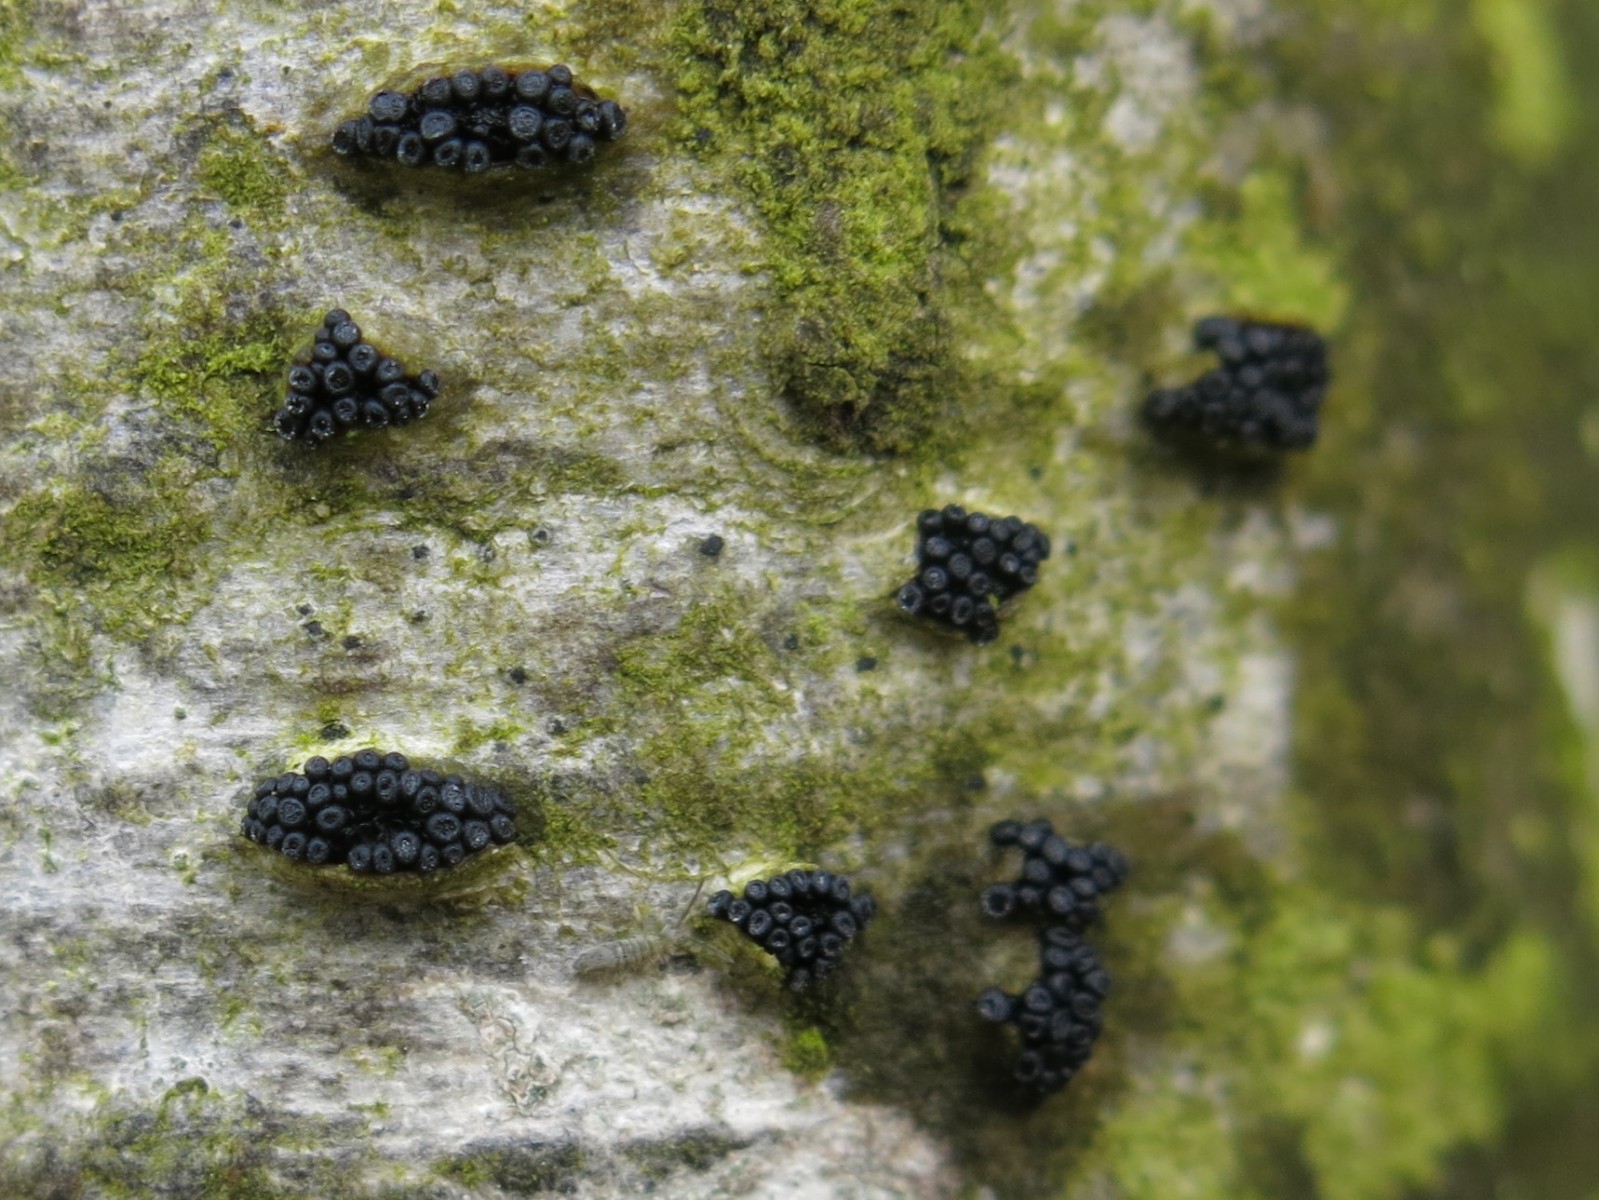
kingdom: Fungi
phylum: Ascomycota
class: Leotiomycetes
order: Leotiales
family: Tympanidaceae
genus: Tympanis
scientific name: Tympanis alnea
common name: almindelig knippeskive
